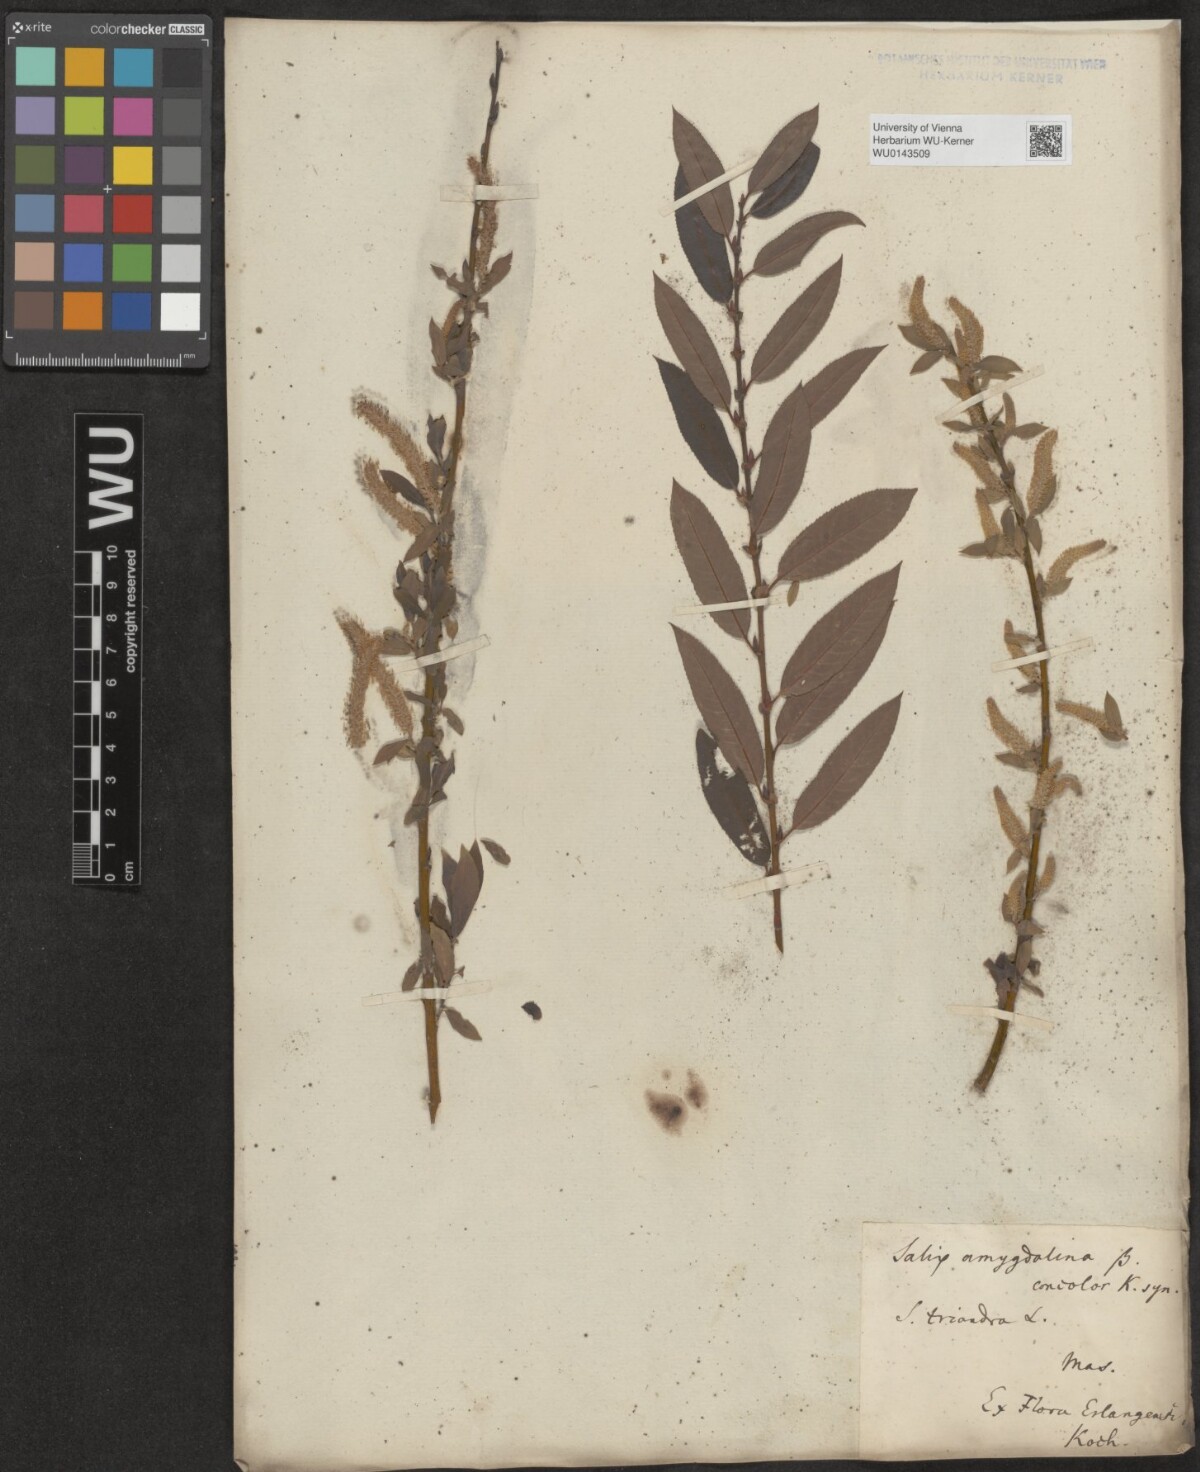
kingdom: Plantae
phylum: Tracheophyta
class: Magnoliopsida
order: Malpighiales
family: Salicaceae
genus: Salix
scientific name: Salix triandra
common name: Almond willow
